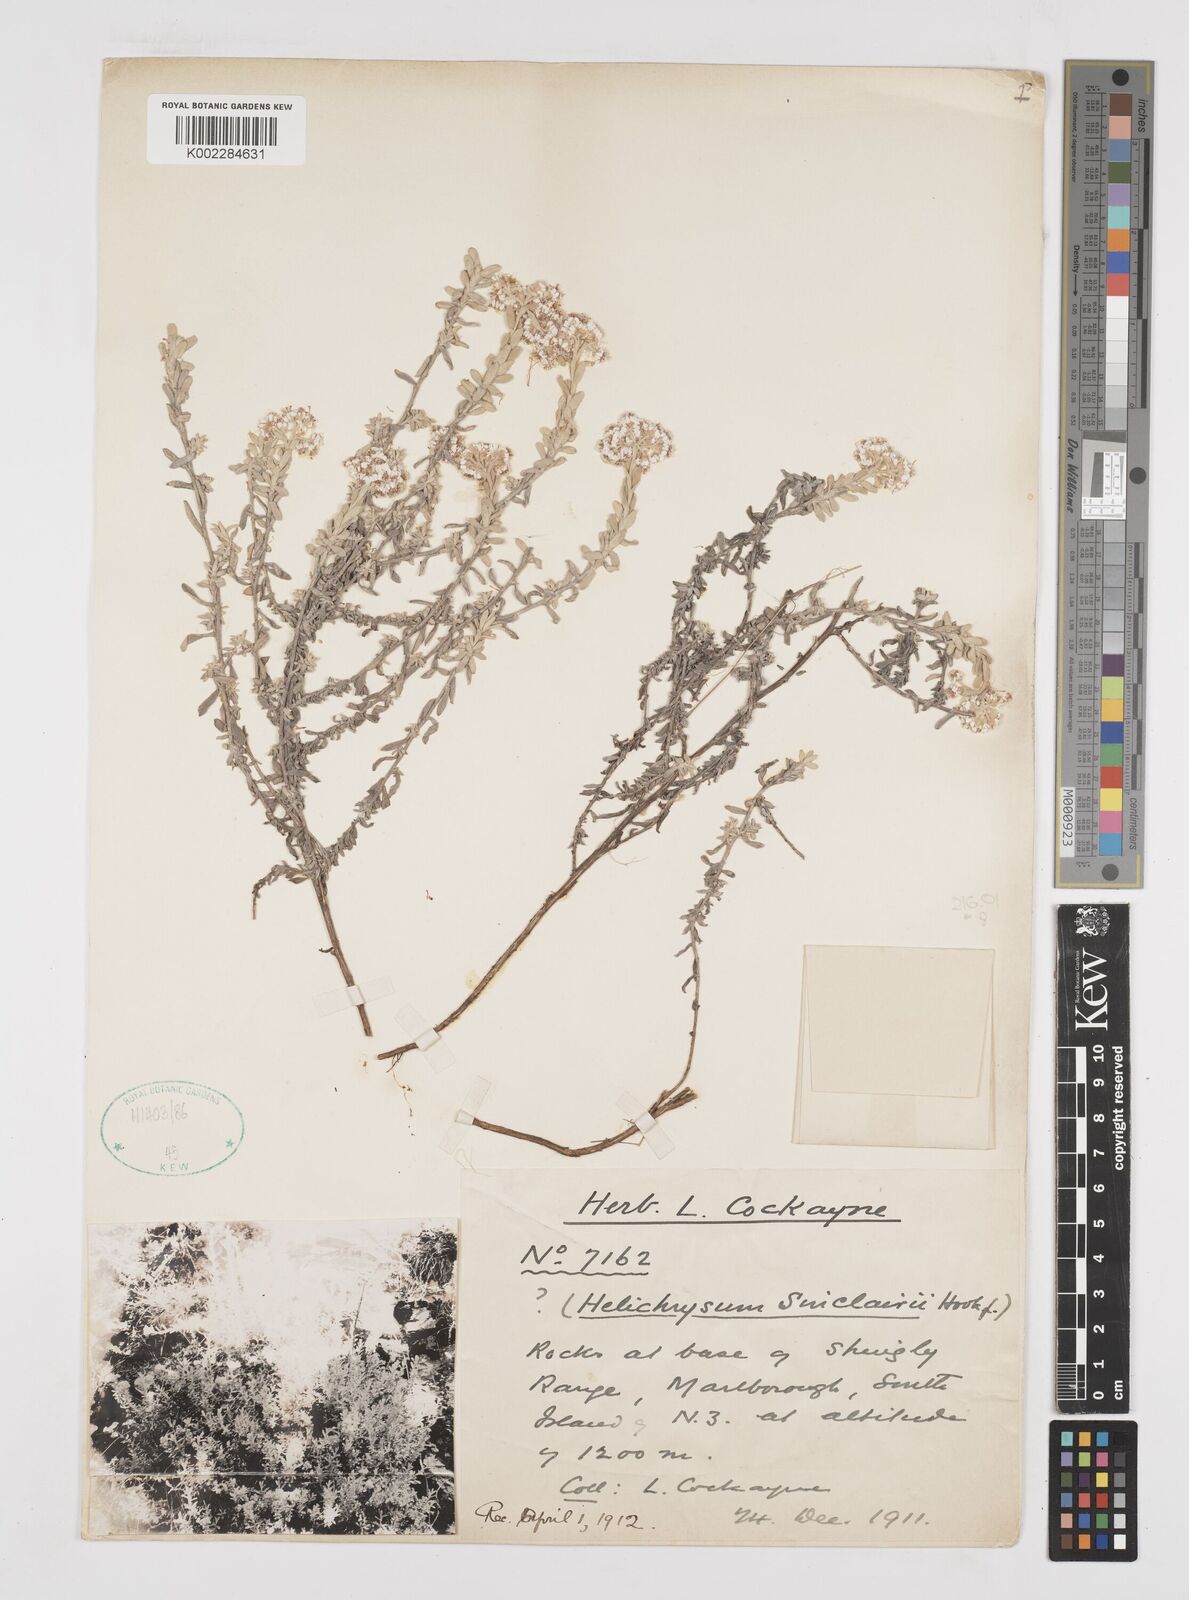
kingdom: Plantae
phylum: Tracheophyta
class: Magnoliopsida
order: Asterales
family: Asteraceae
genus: Ewartiothamnus
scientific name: Ewartiothamnus sinclairii
